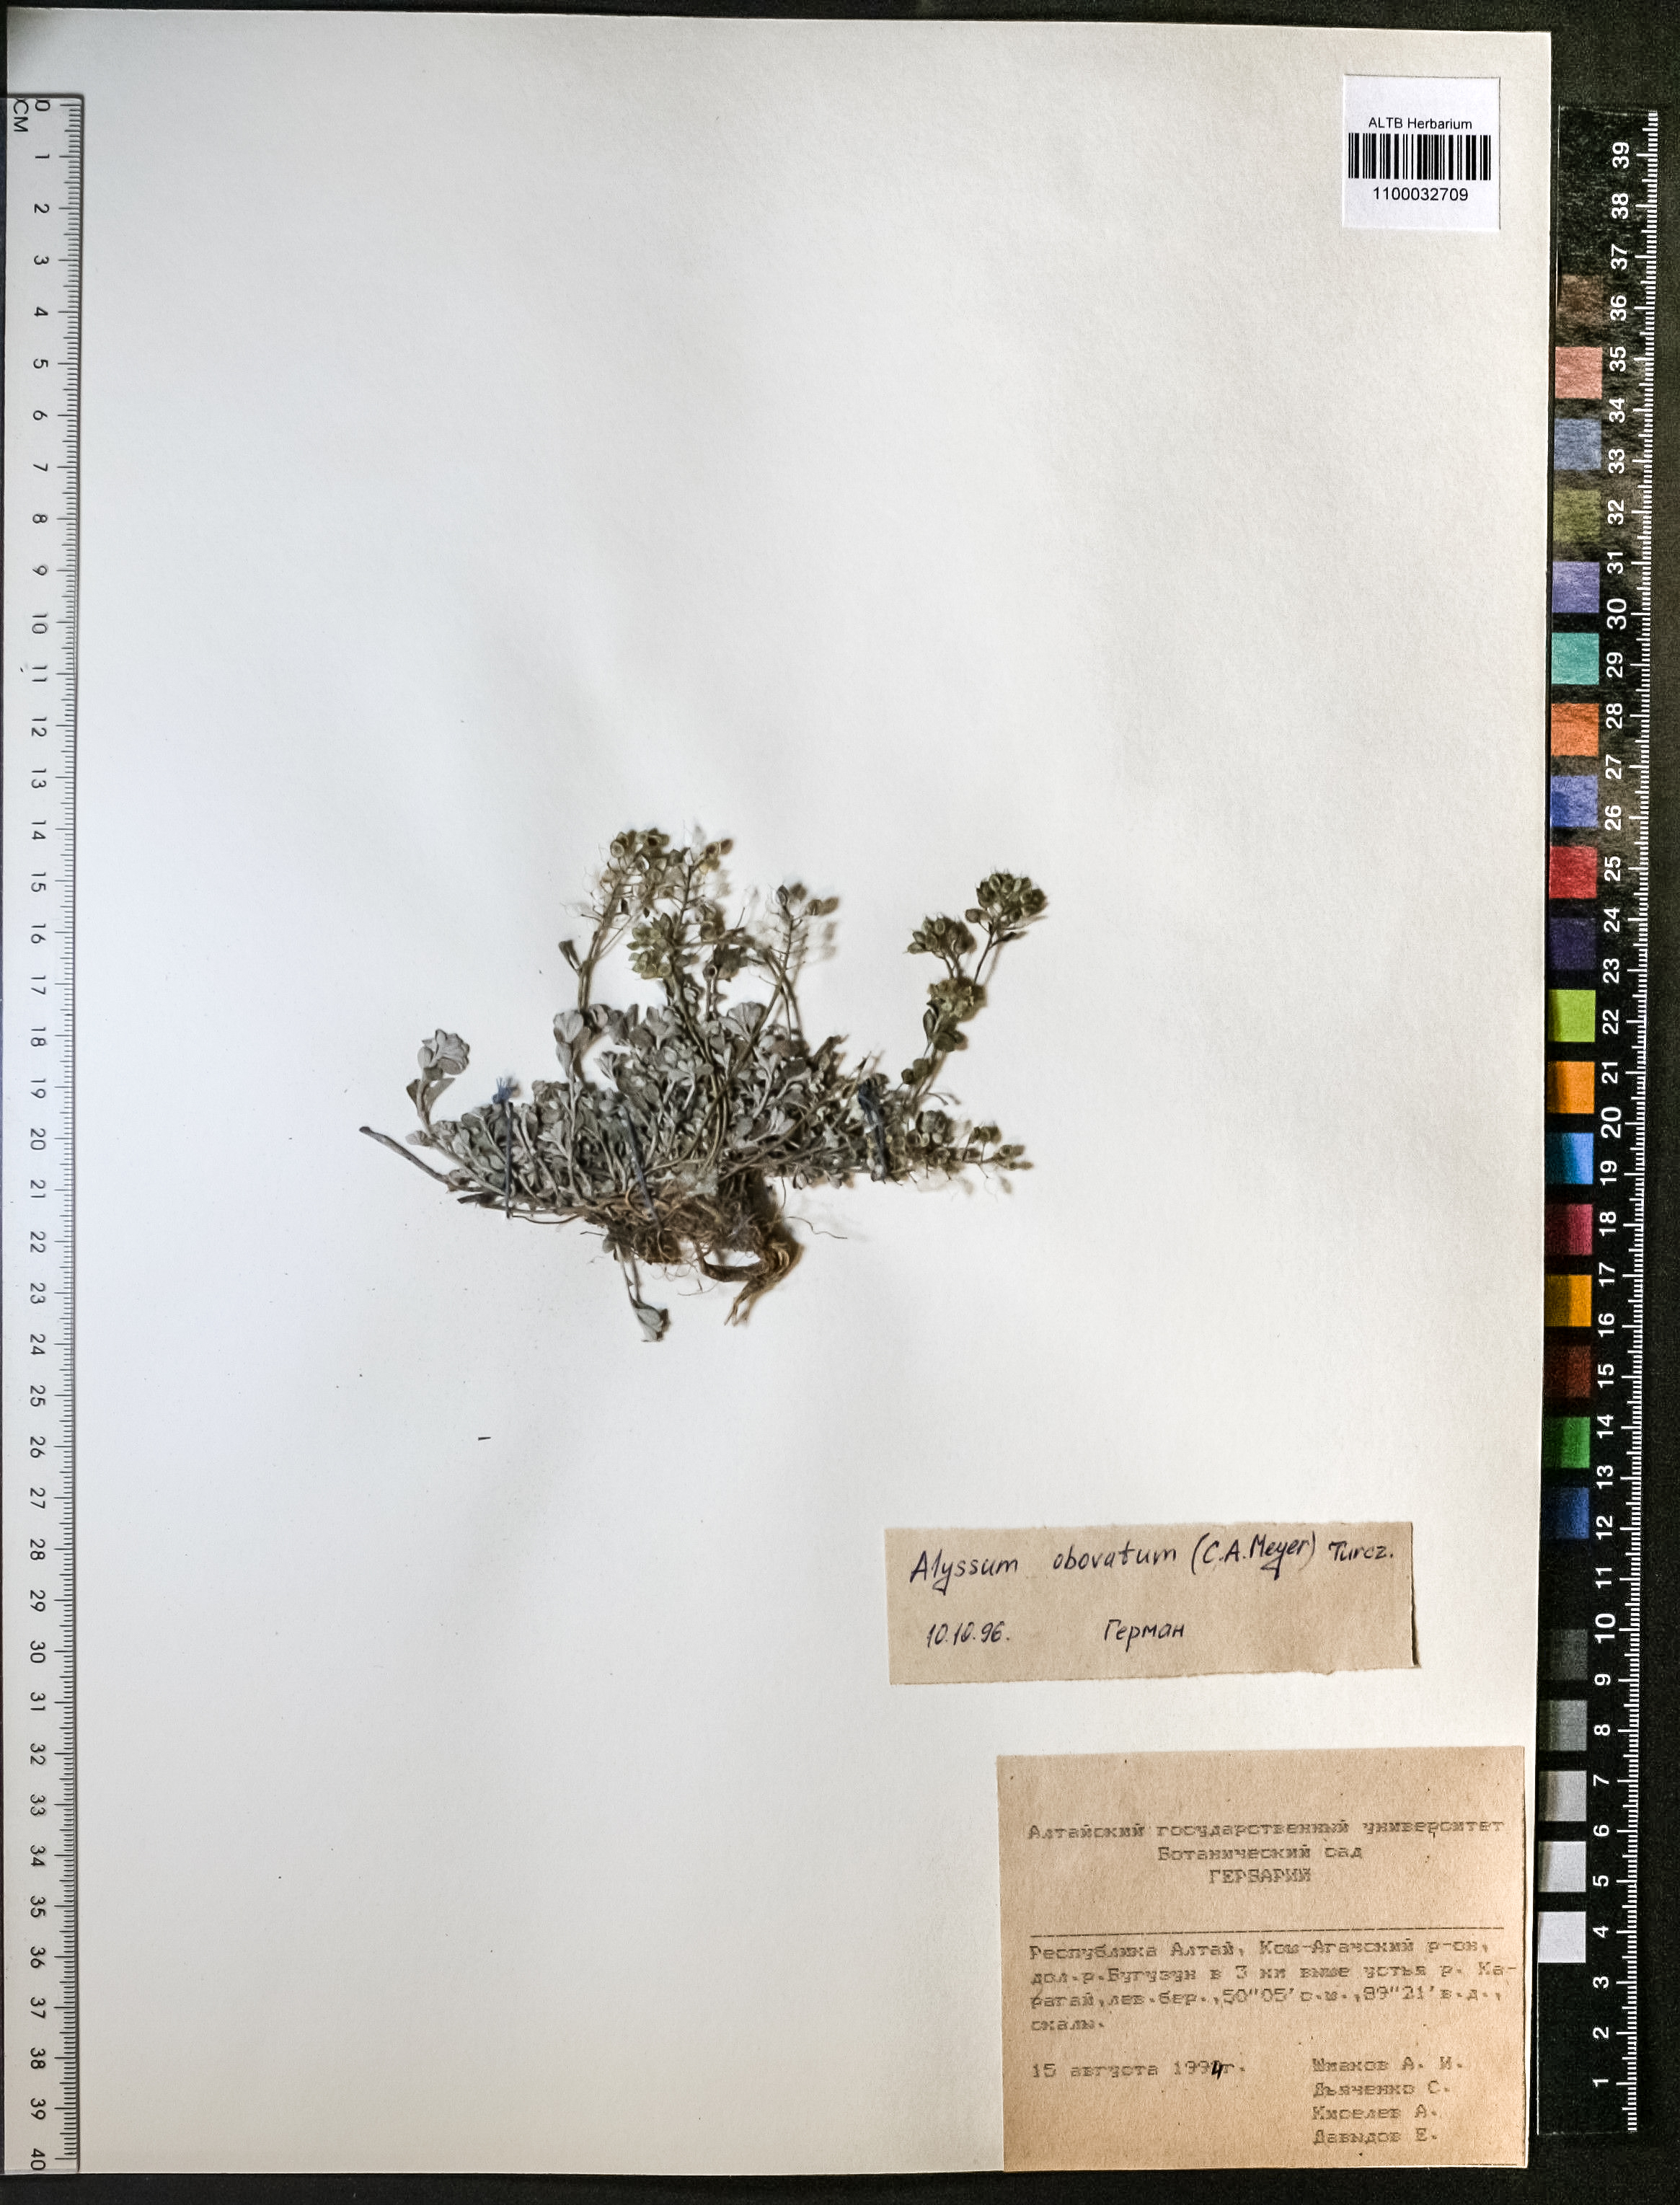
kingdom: Plantae
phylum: Tracheophyta
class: Magnoliopsida
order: Brassicales
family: Brassicaceae
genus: Odontarrhena
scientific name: Odontarrhena obovata
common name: American alyssum
